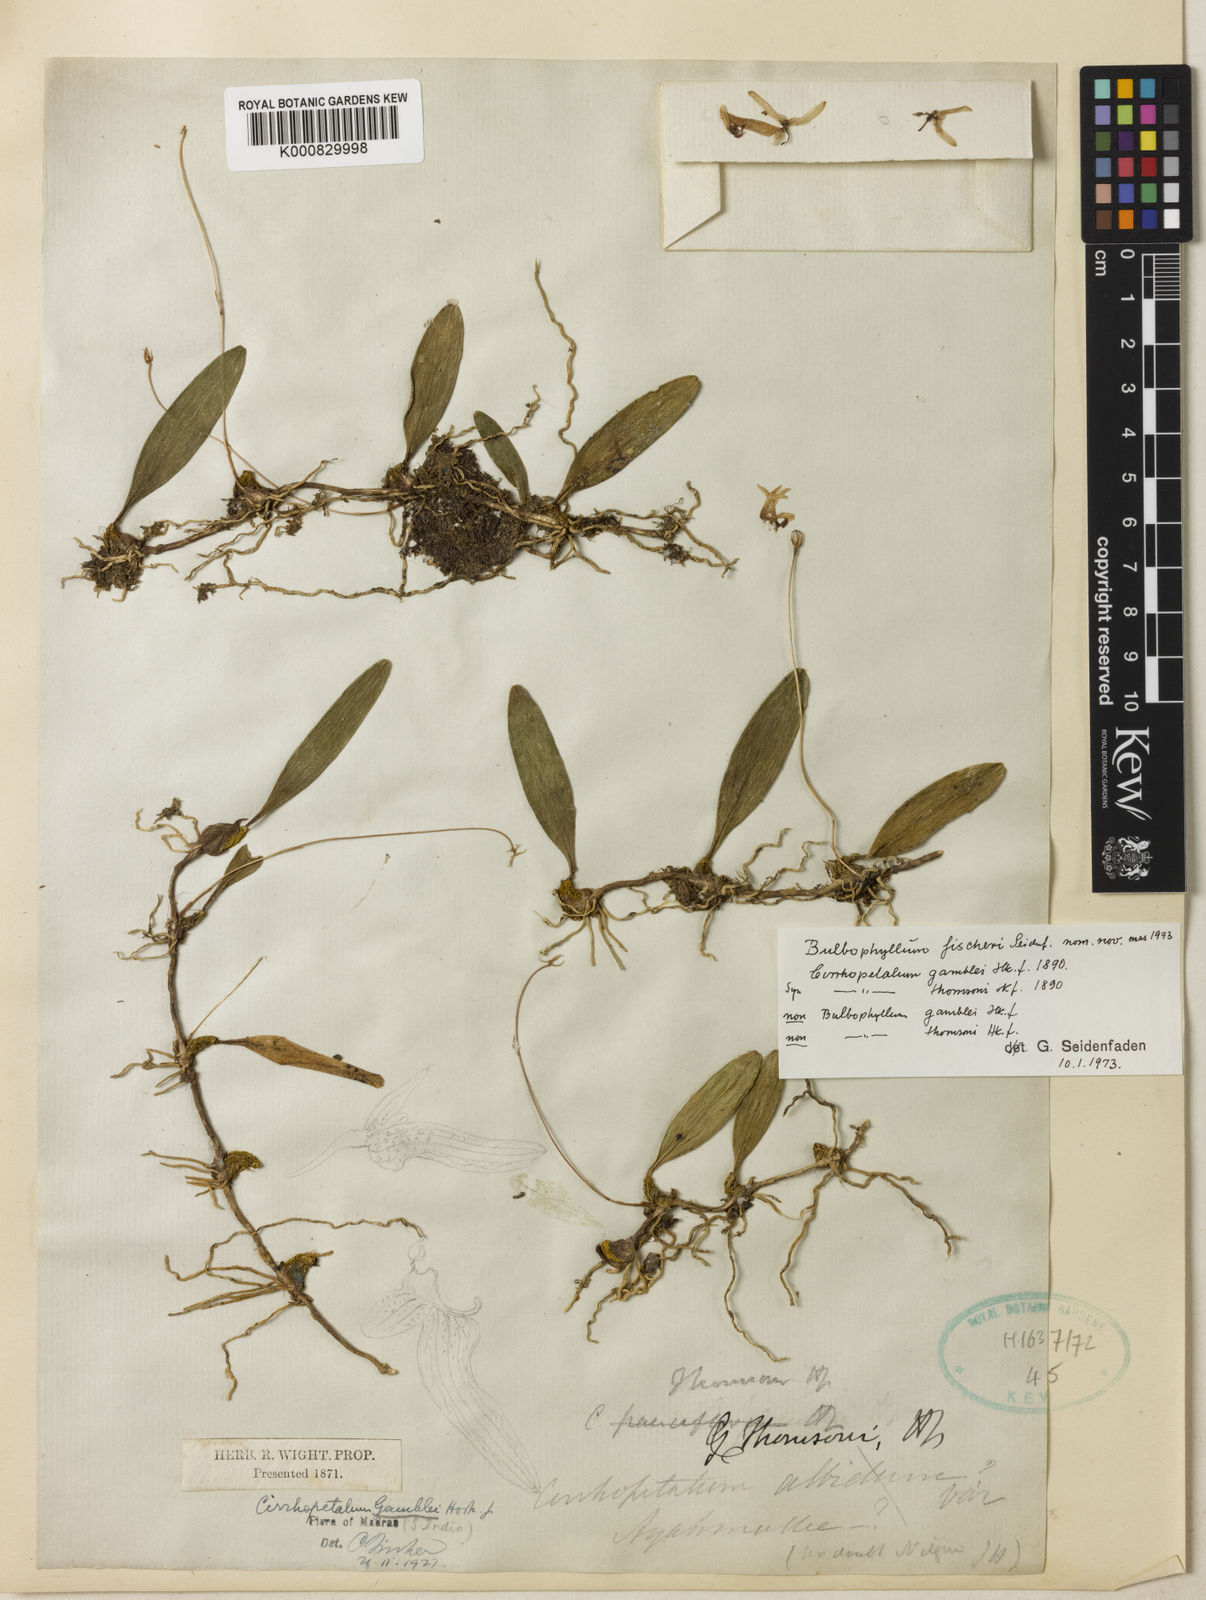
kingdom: Plantae
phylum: Tracheophyta
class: Liliopsida
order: Asparagales
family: Orchidaceae
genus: Bulbophyllum
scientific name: Bulbophyllum fischeri
